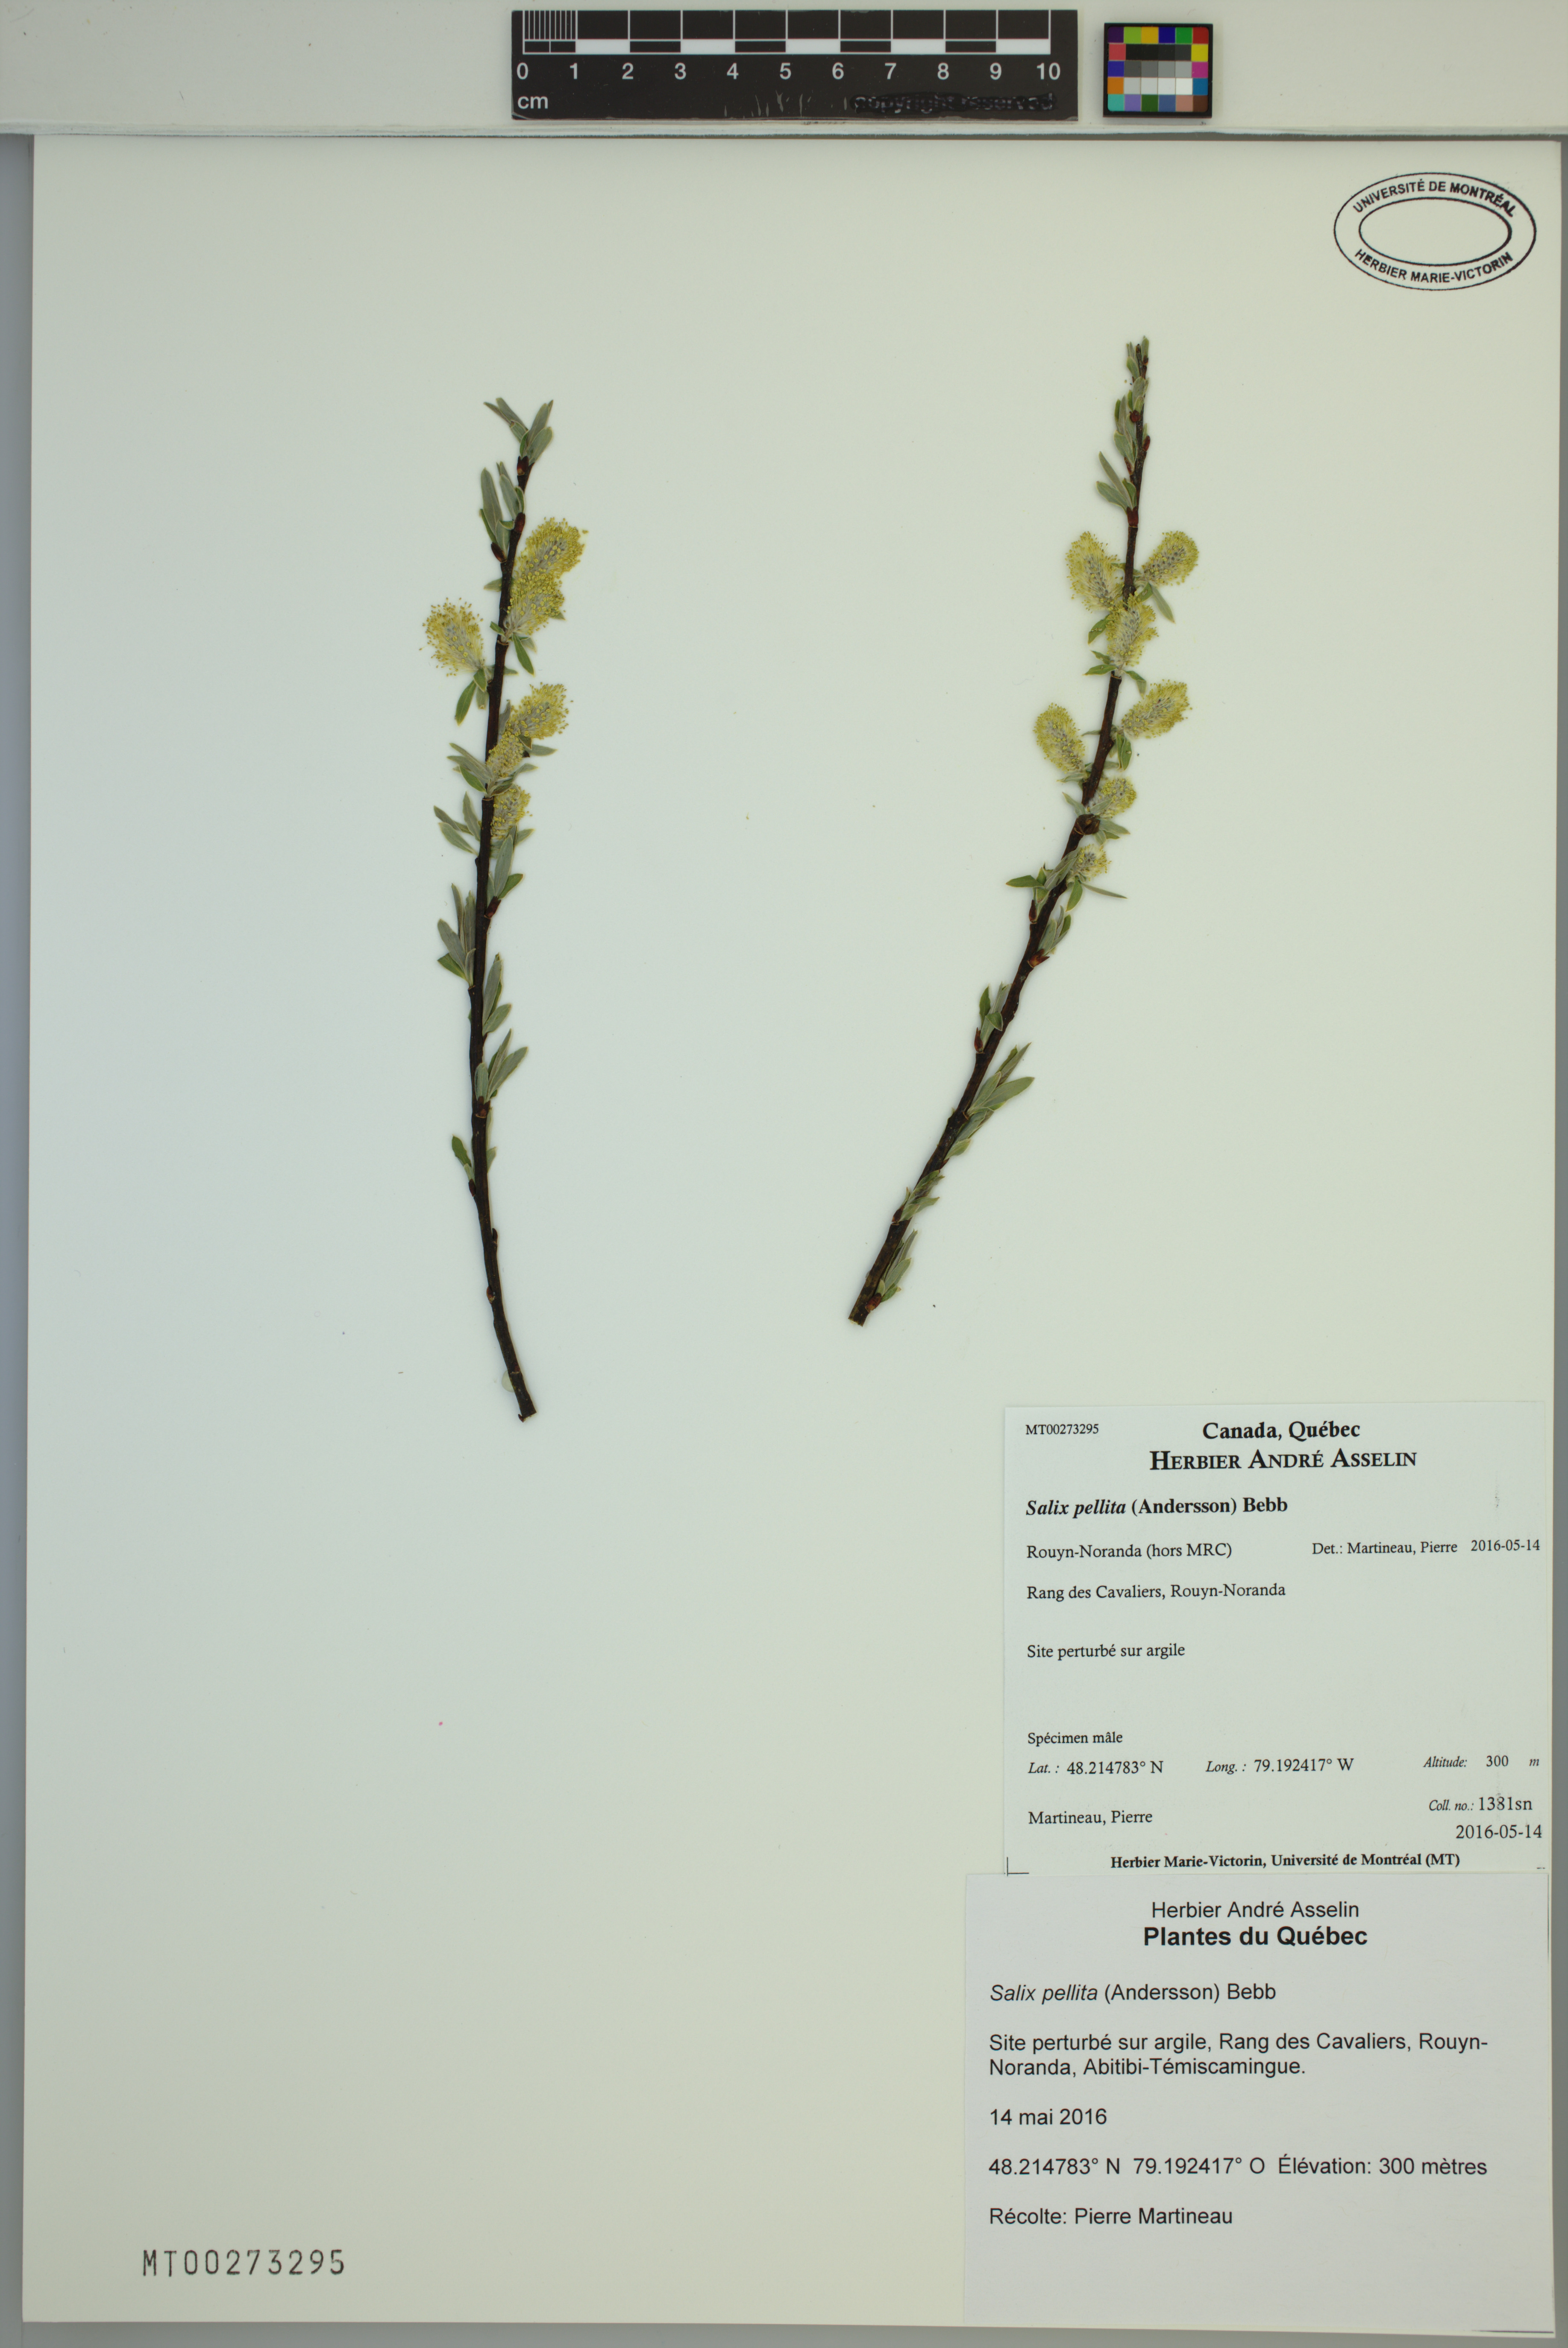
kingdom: Plantae
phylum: Tracheophyta
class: Magnoliopsida
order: Malpighiales
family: Salicaceae
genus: Salix
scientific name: Salix pellita
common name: Satiny willow
